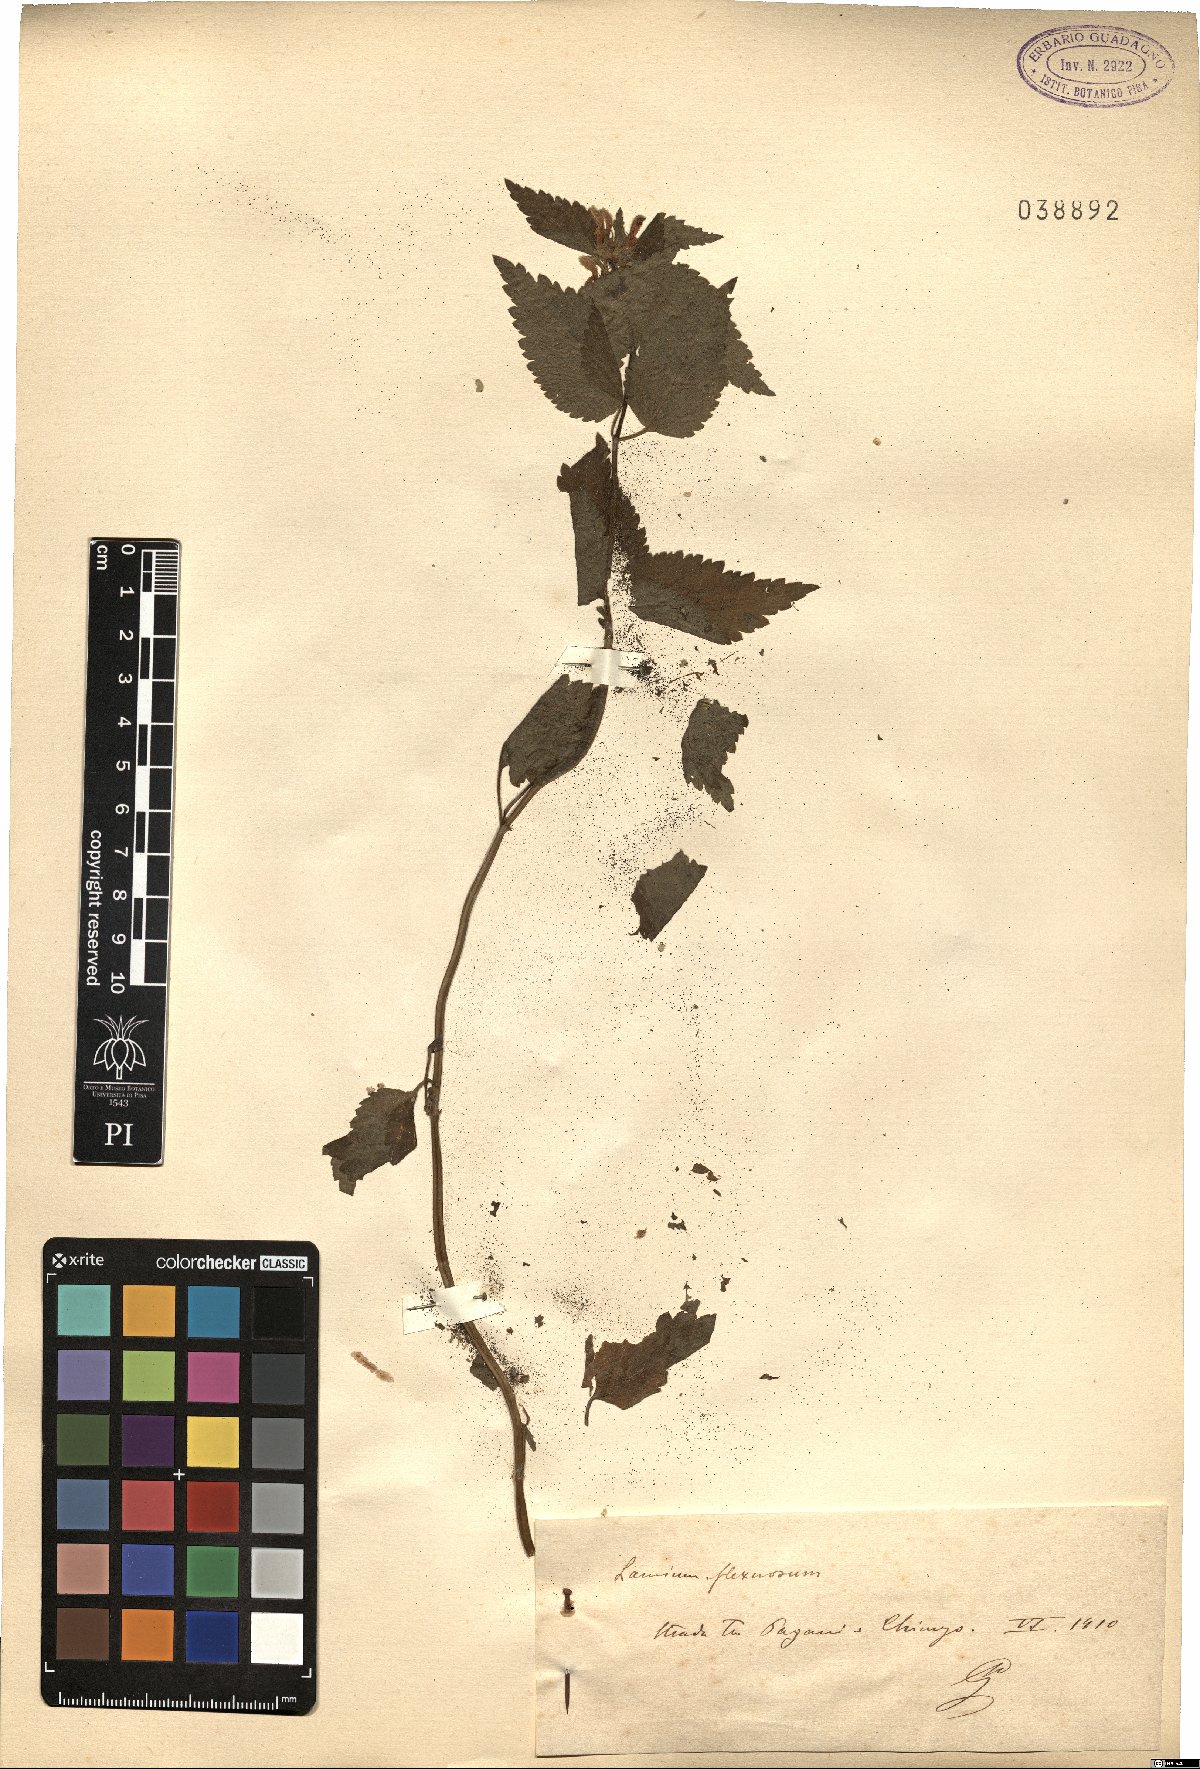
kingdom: Plantae
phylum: Tracheophyta
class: Magnoliopsida
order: Lamiales
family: Lamiaceae
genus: Lamium
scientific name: Lamium flexuosum
